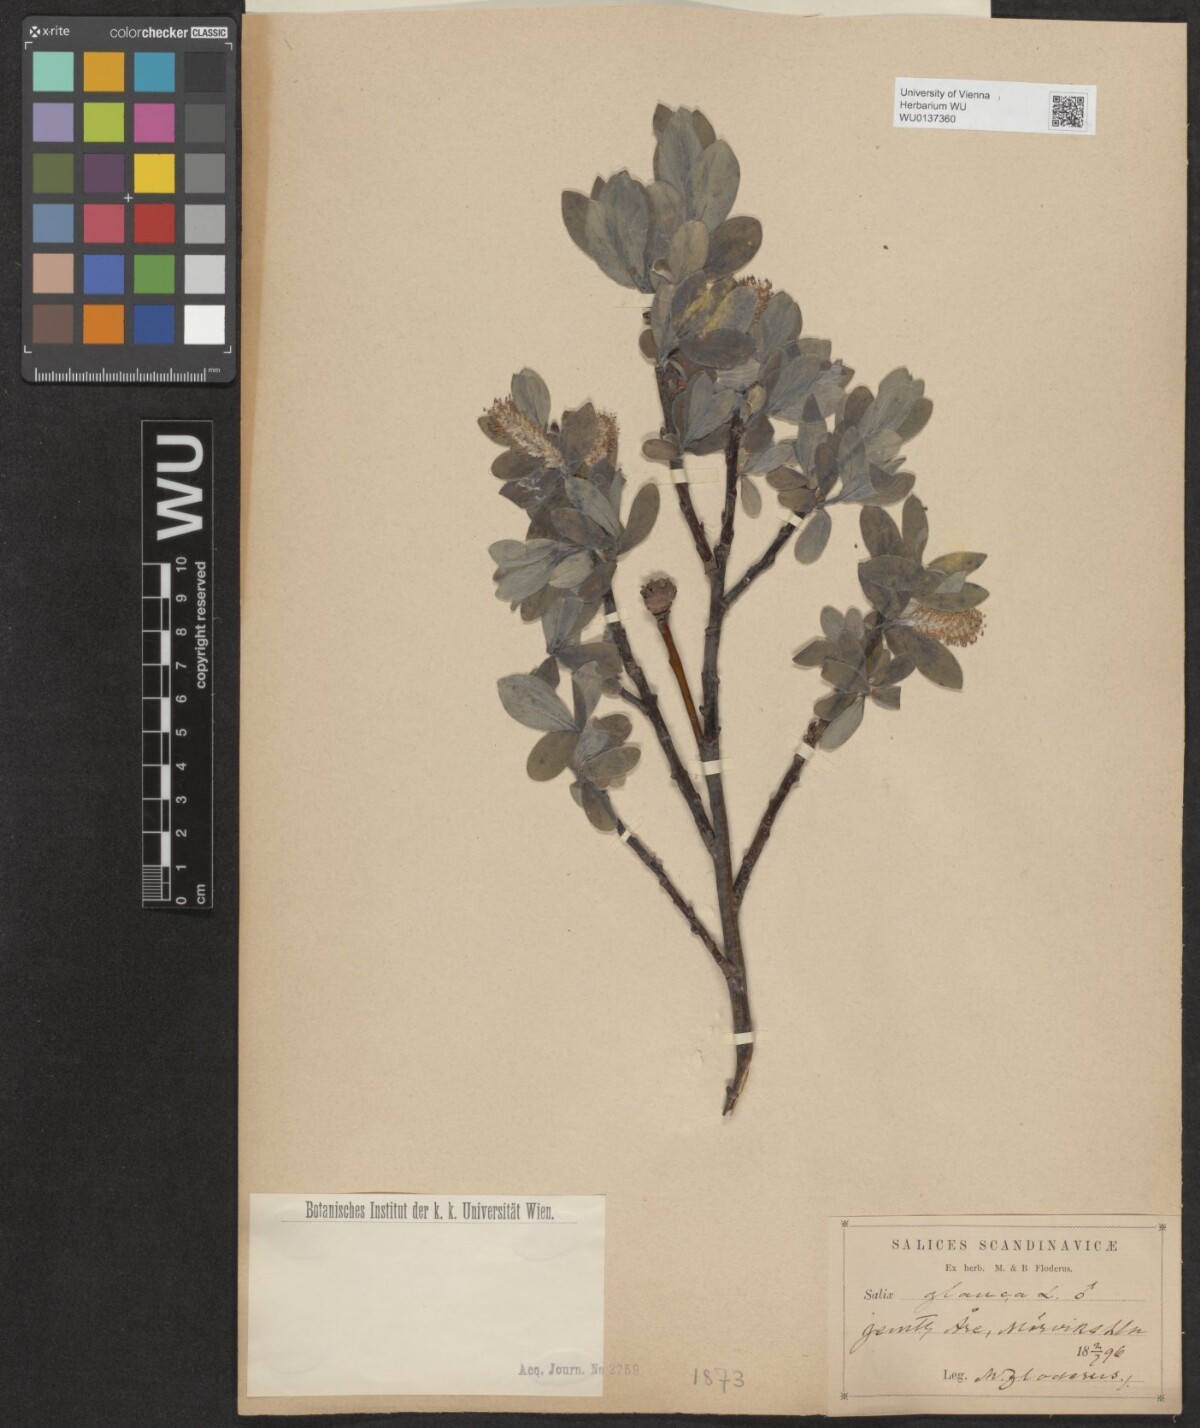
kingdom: Plantae
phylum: Tracheophyta
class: Magnoliopsida
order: Malpighiales
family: Salicaceae
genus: Salix
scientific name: Salix glauca
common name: Glaucous willow
